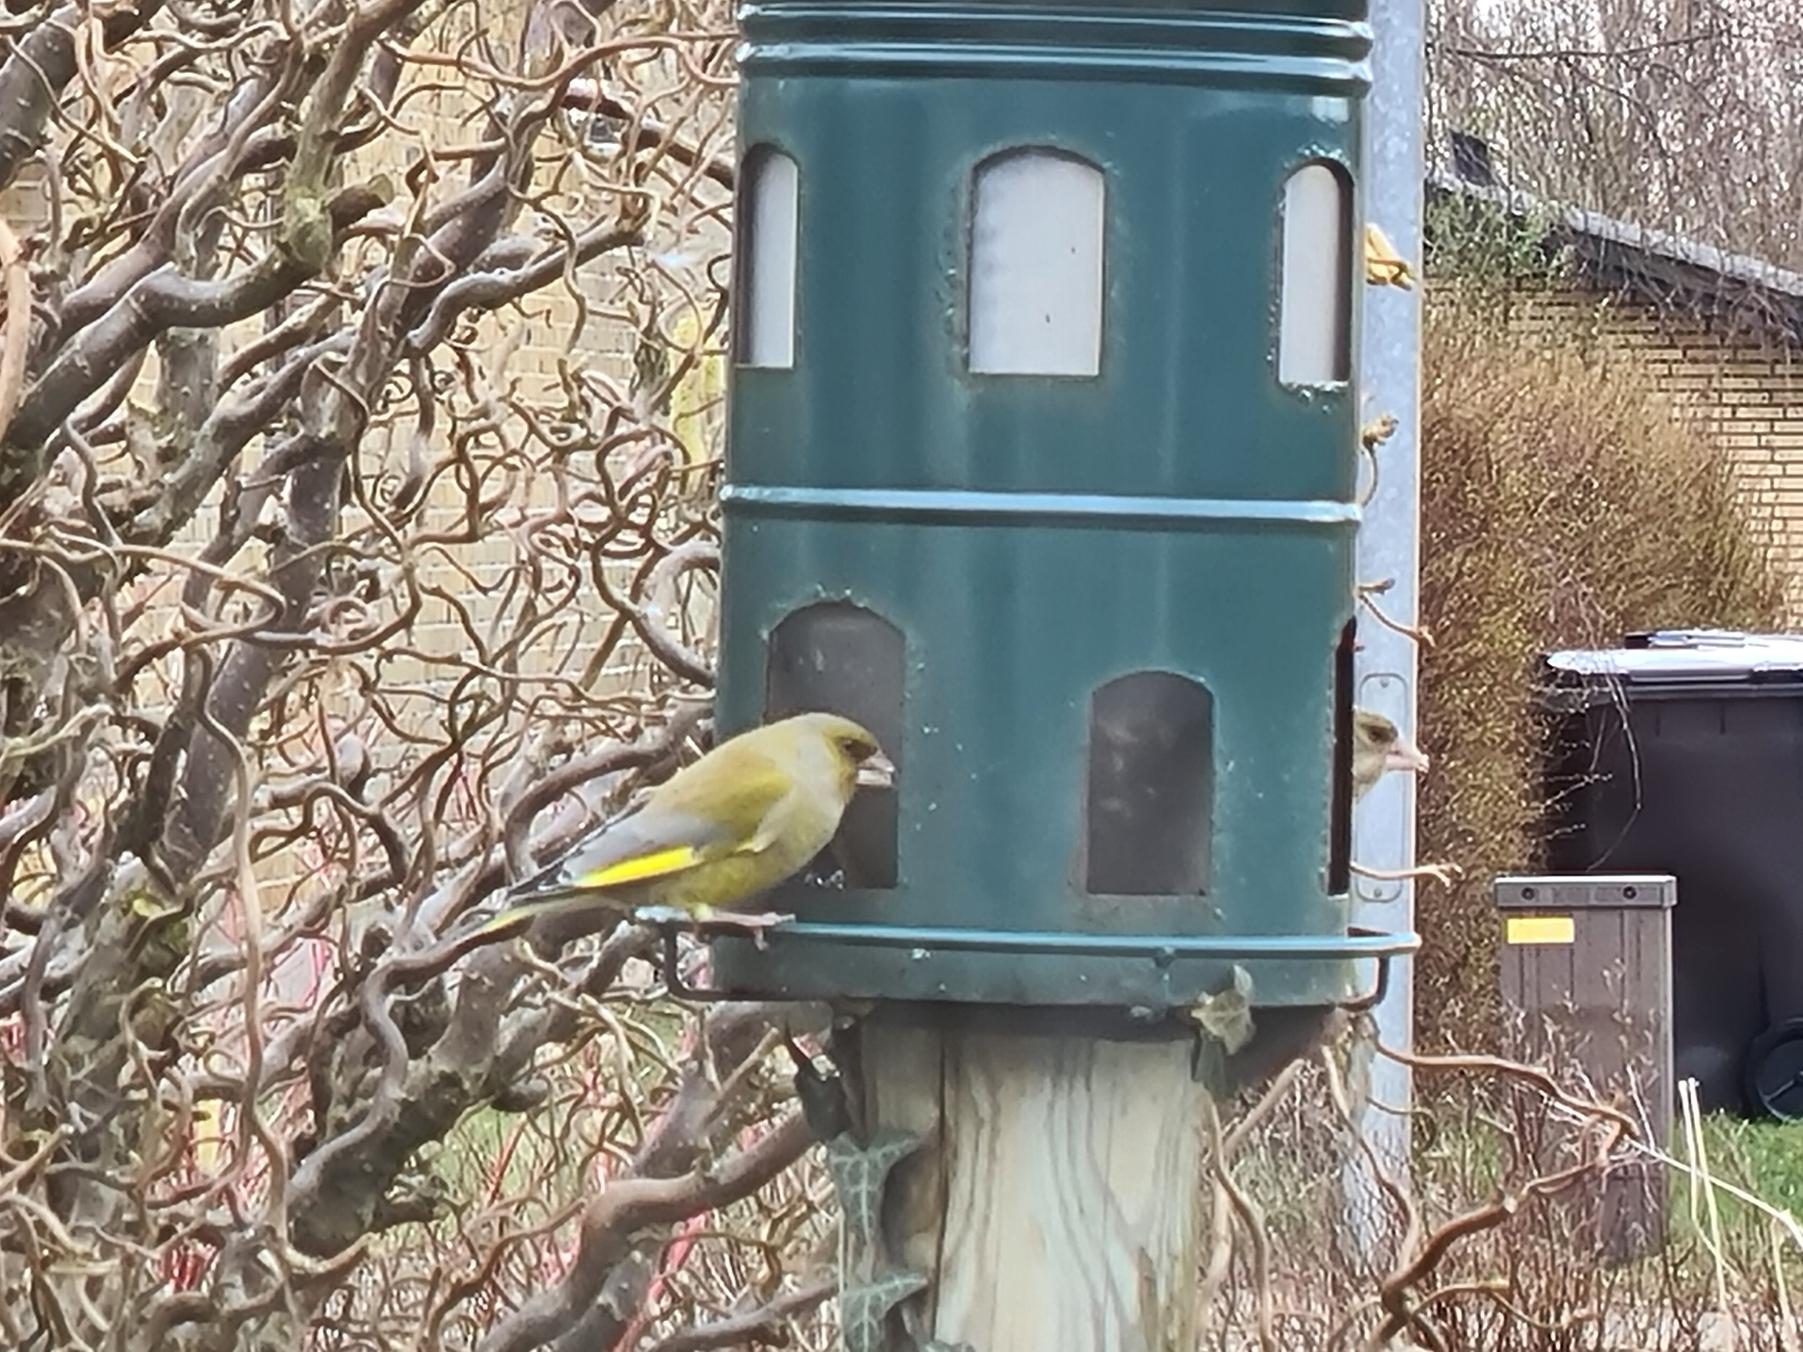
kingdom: Plantae
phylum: Tracheophyta
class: Liliopsida
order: Poales
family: Poaceae
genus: Chloris
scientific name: Chloris chloris
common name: Grønirisk
